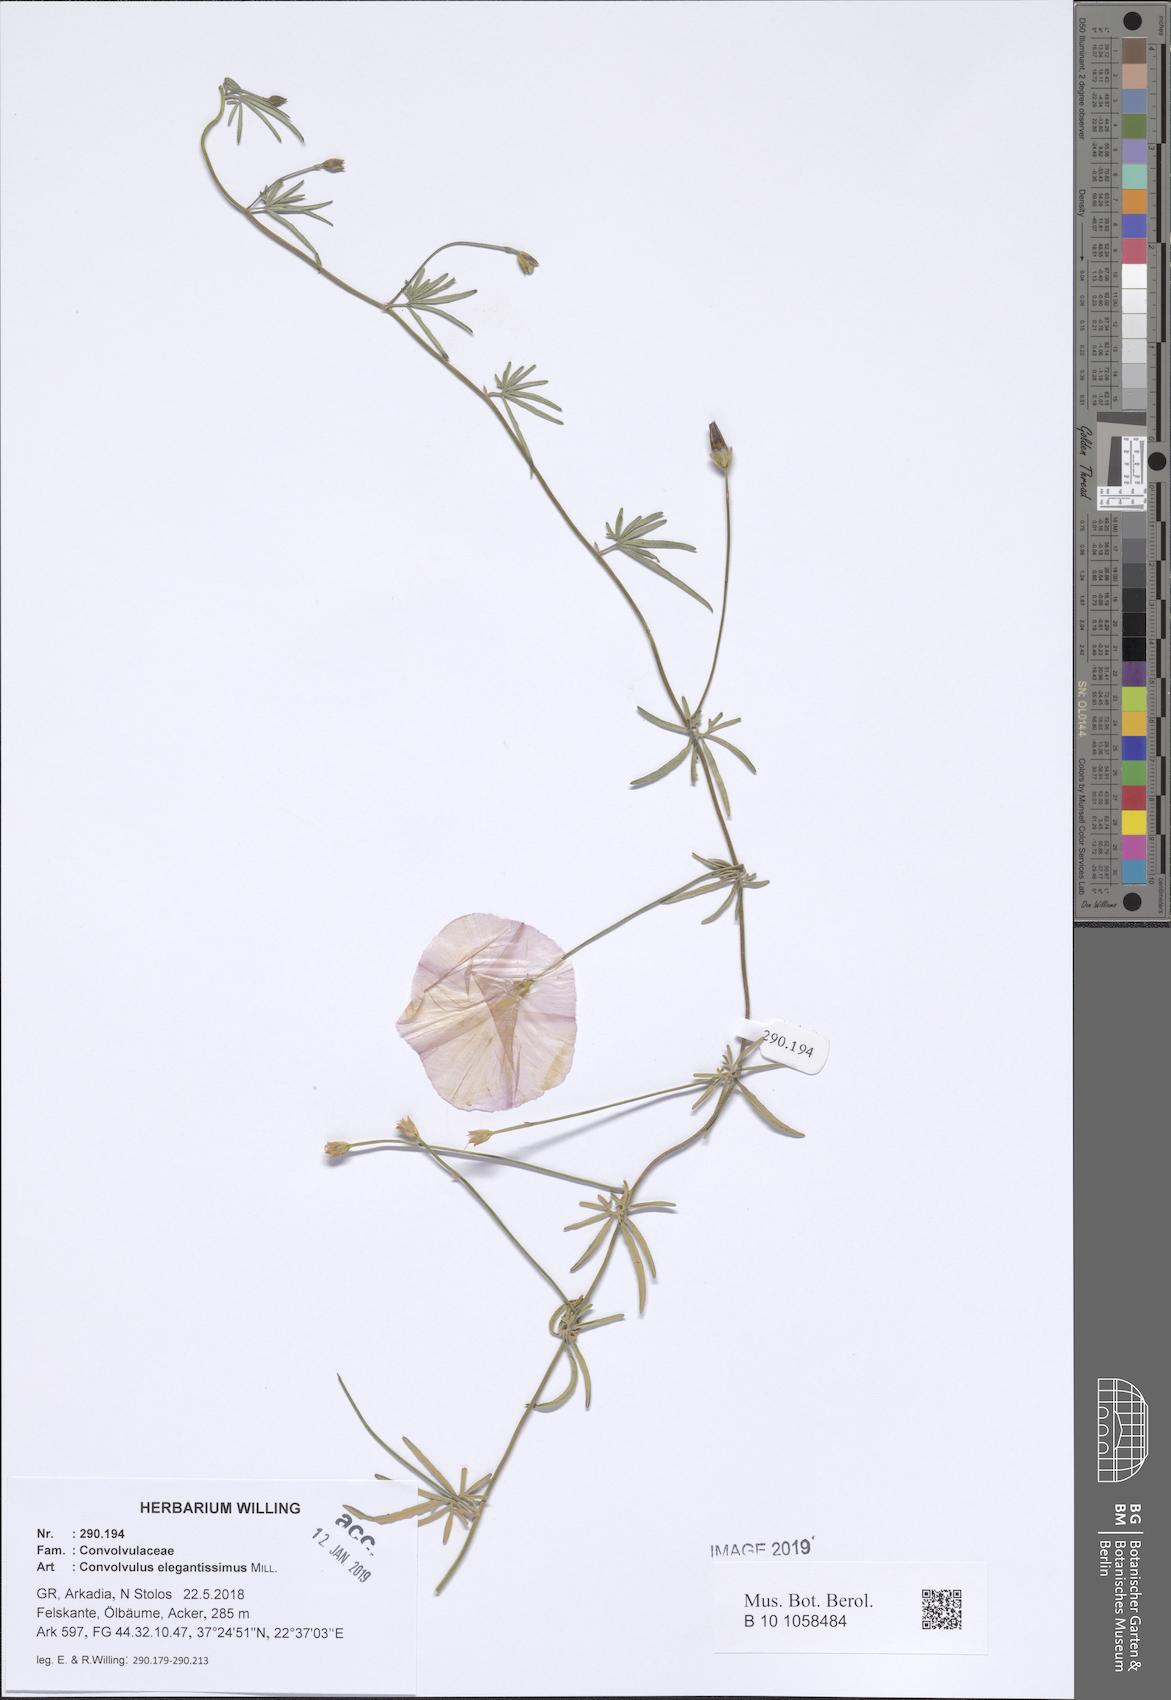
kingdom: Plantae
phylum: Tracheophyta
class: Magnoliopsida
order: Solanales
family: Convolvulaceae
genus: Convolvulus
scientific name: Convolvulus elegantissimus
